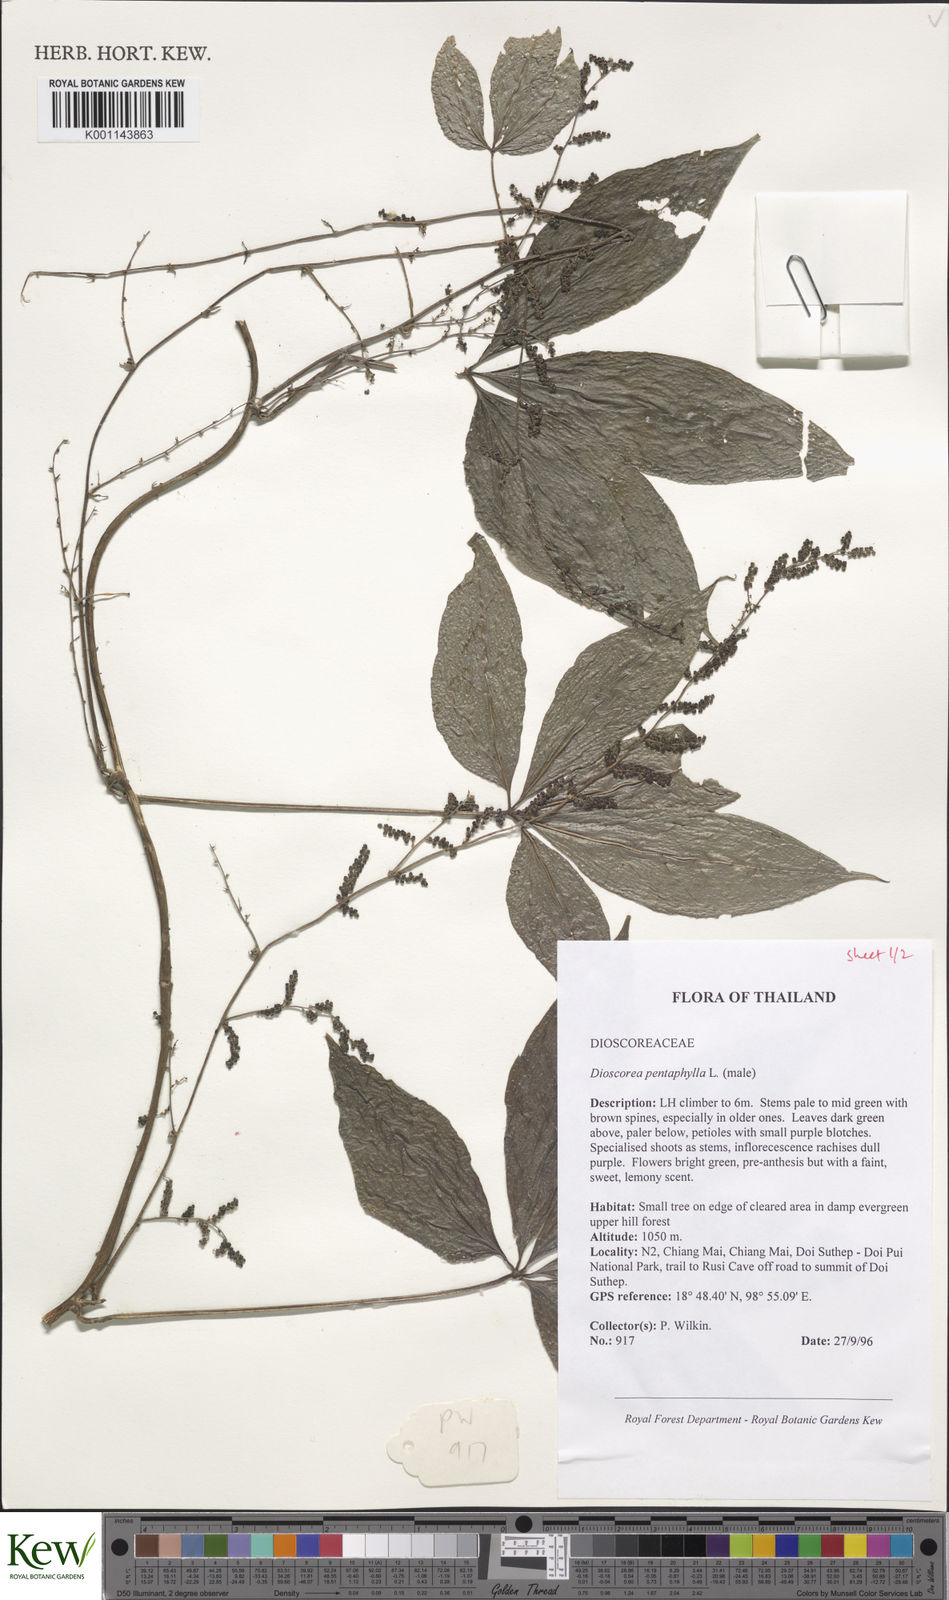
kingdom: Plantae
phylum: Tracheophyta
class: Liliopsida
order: Dioscoreales
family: Dioscoreaceae
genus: Dioscorea
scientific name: Dioscorea pentaphylla
